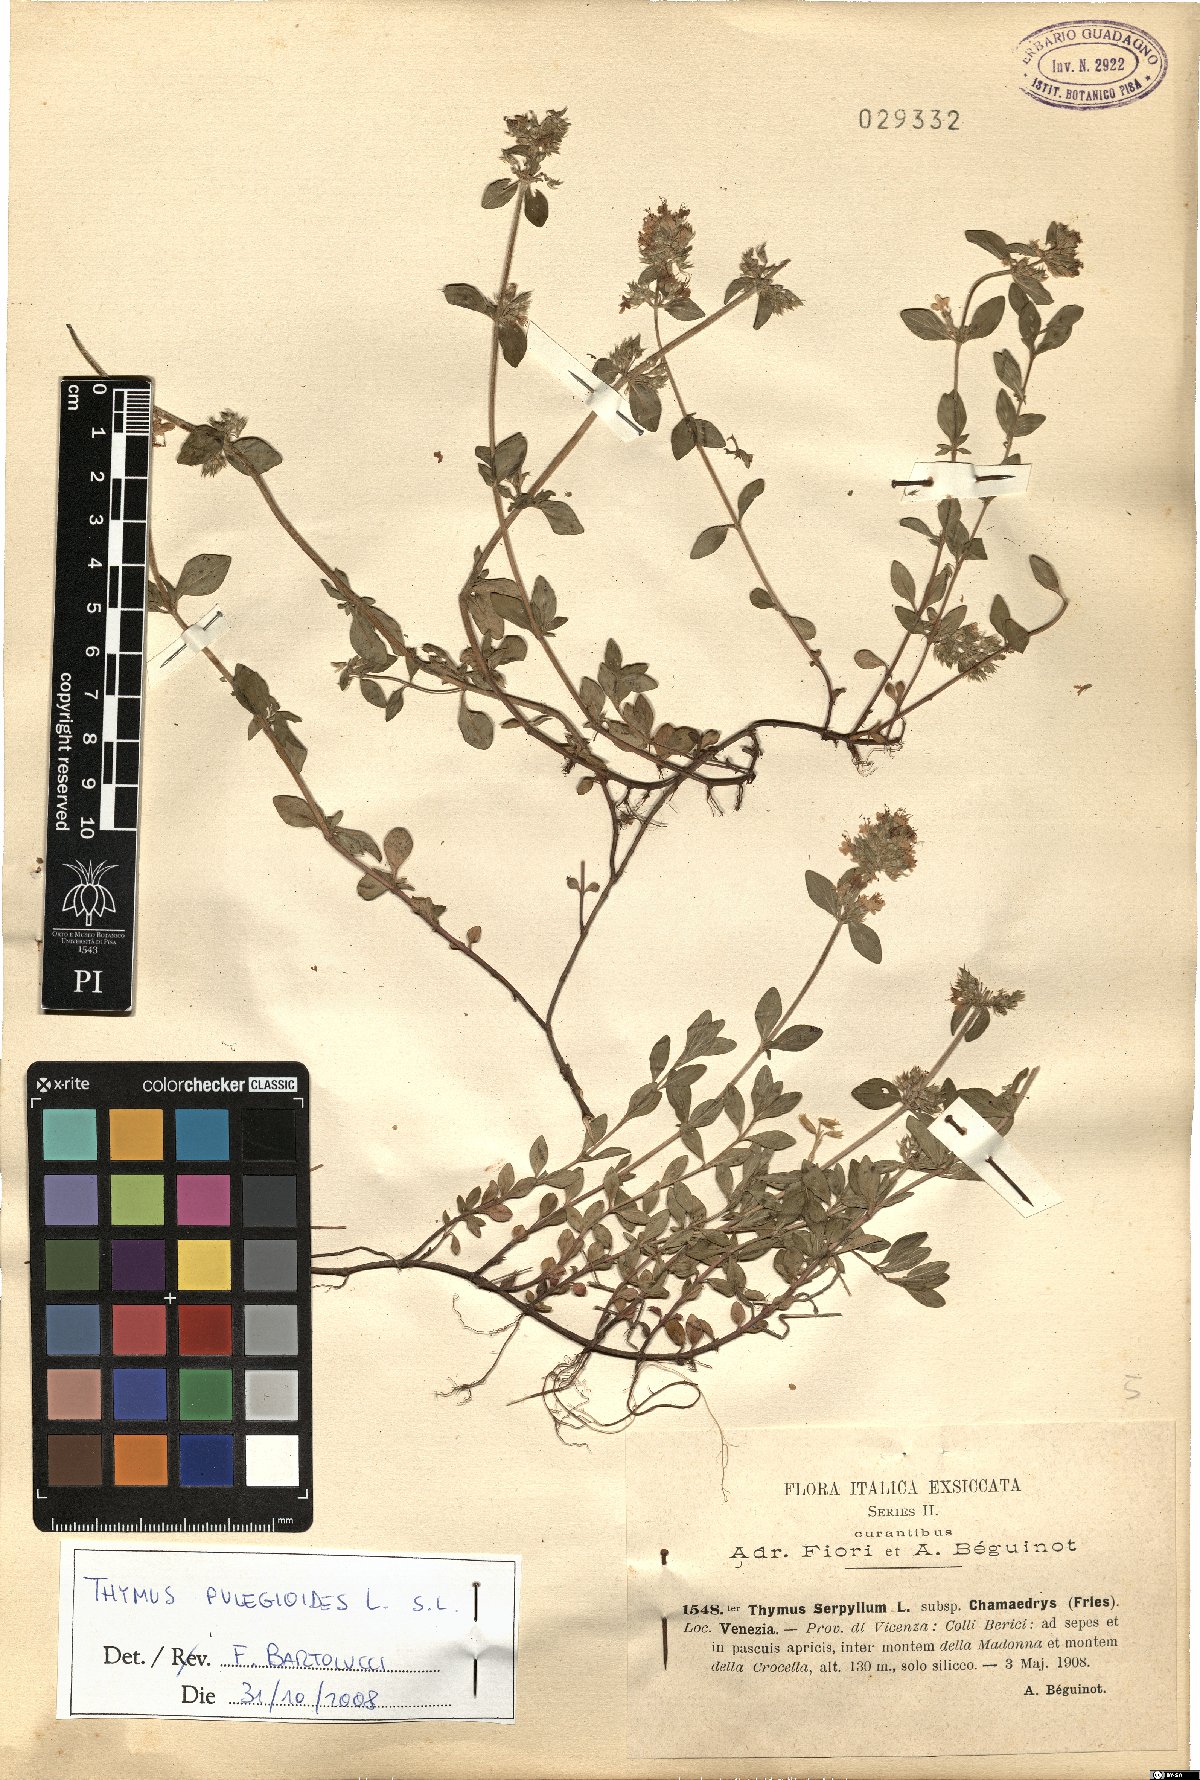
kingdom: Plantae
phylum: Tracheophyta
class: Magnoliopsida
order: Lamiales
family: Lamiaceae
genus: Thymus
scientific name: Thymus pulegioides
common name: Large thyme
